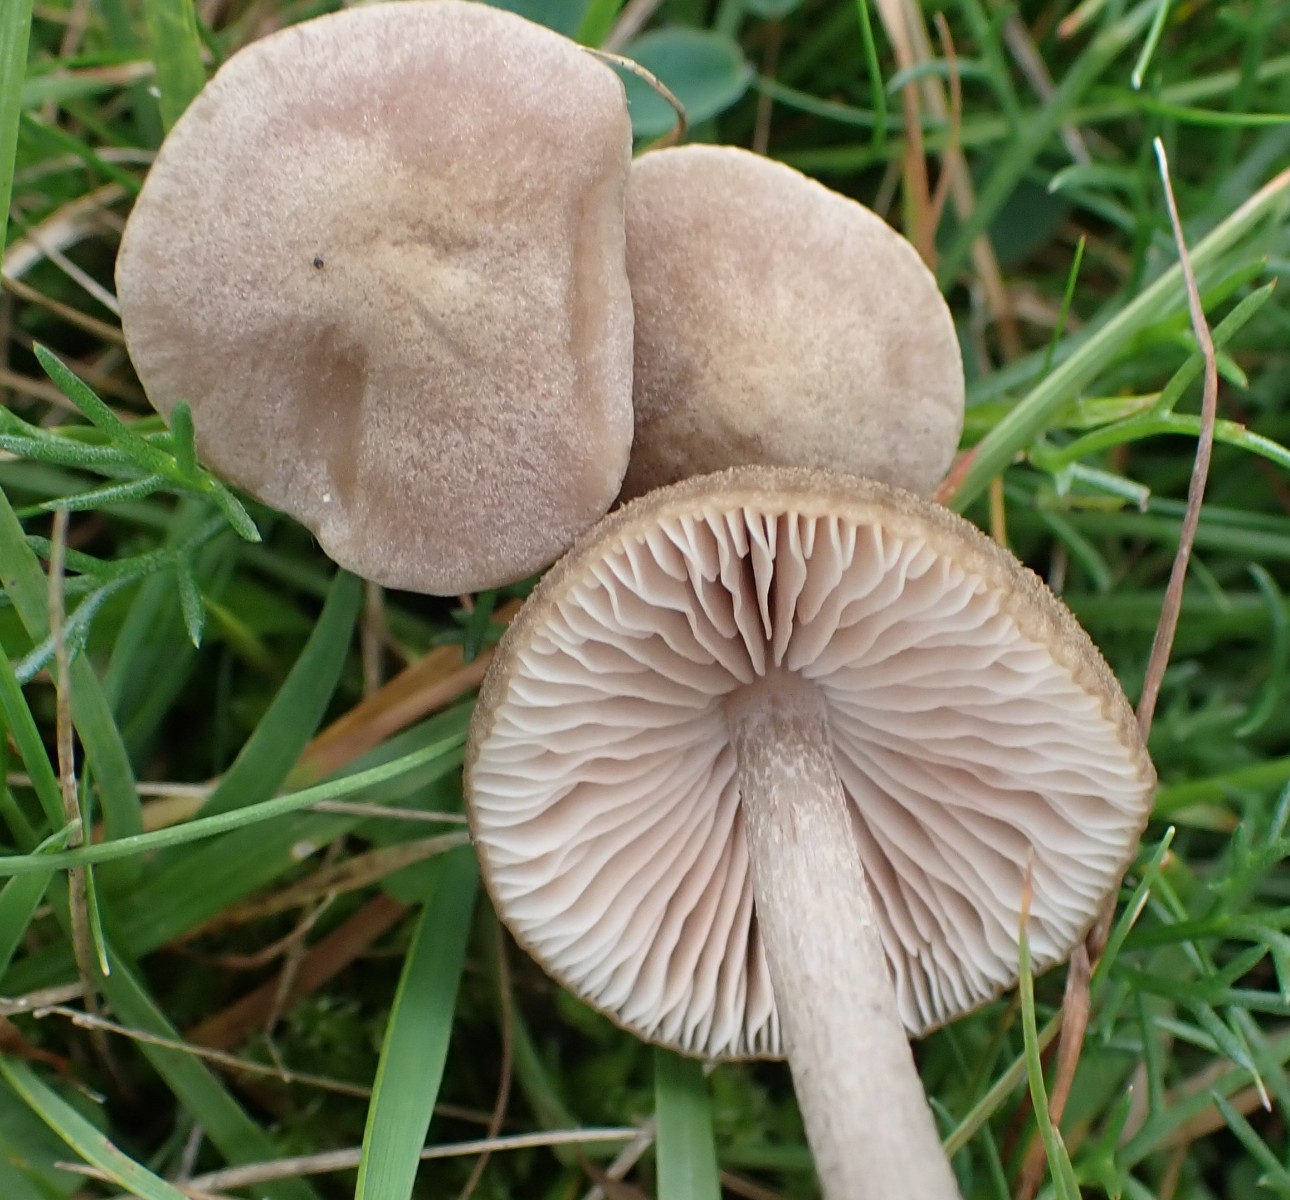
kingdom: Fungi
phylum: Basidiomycota
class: Agaricomycetes
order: Agaricales
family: Entolomataceae
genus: Entoloma
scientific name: Entoloma griseocyaneum
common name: gråblå rødblad
